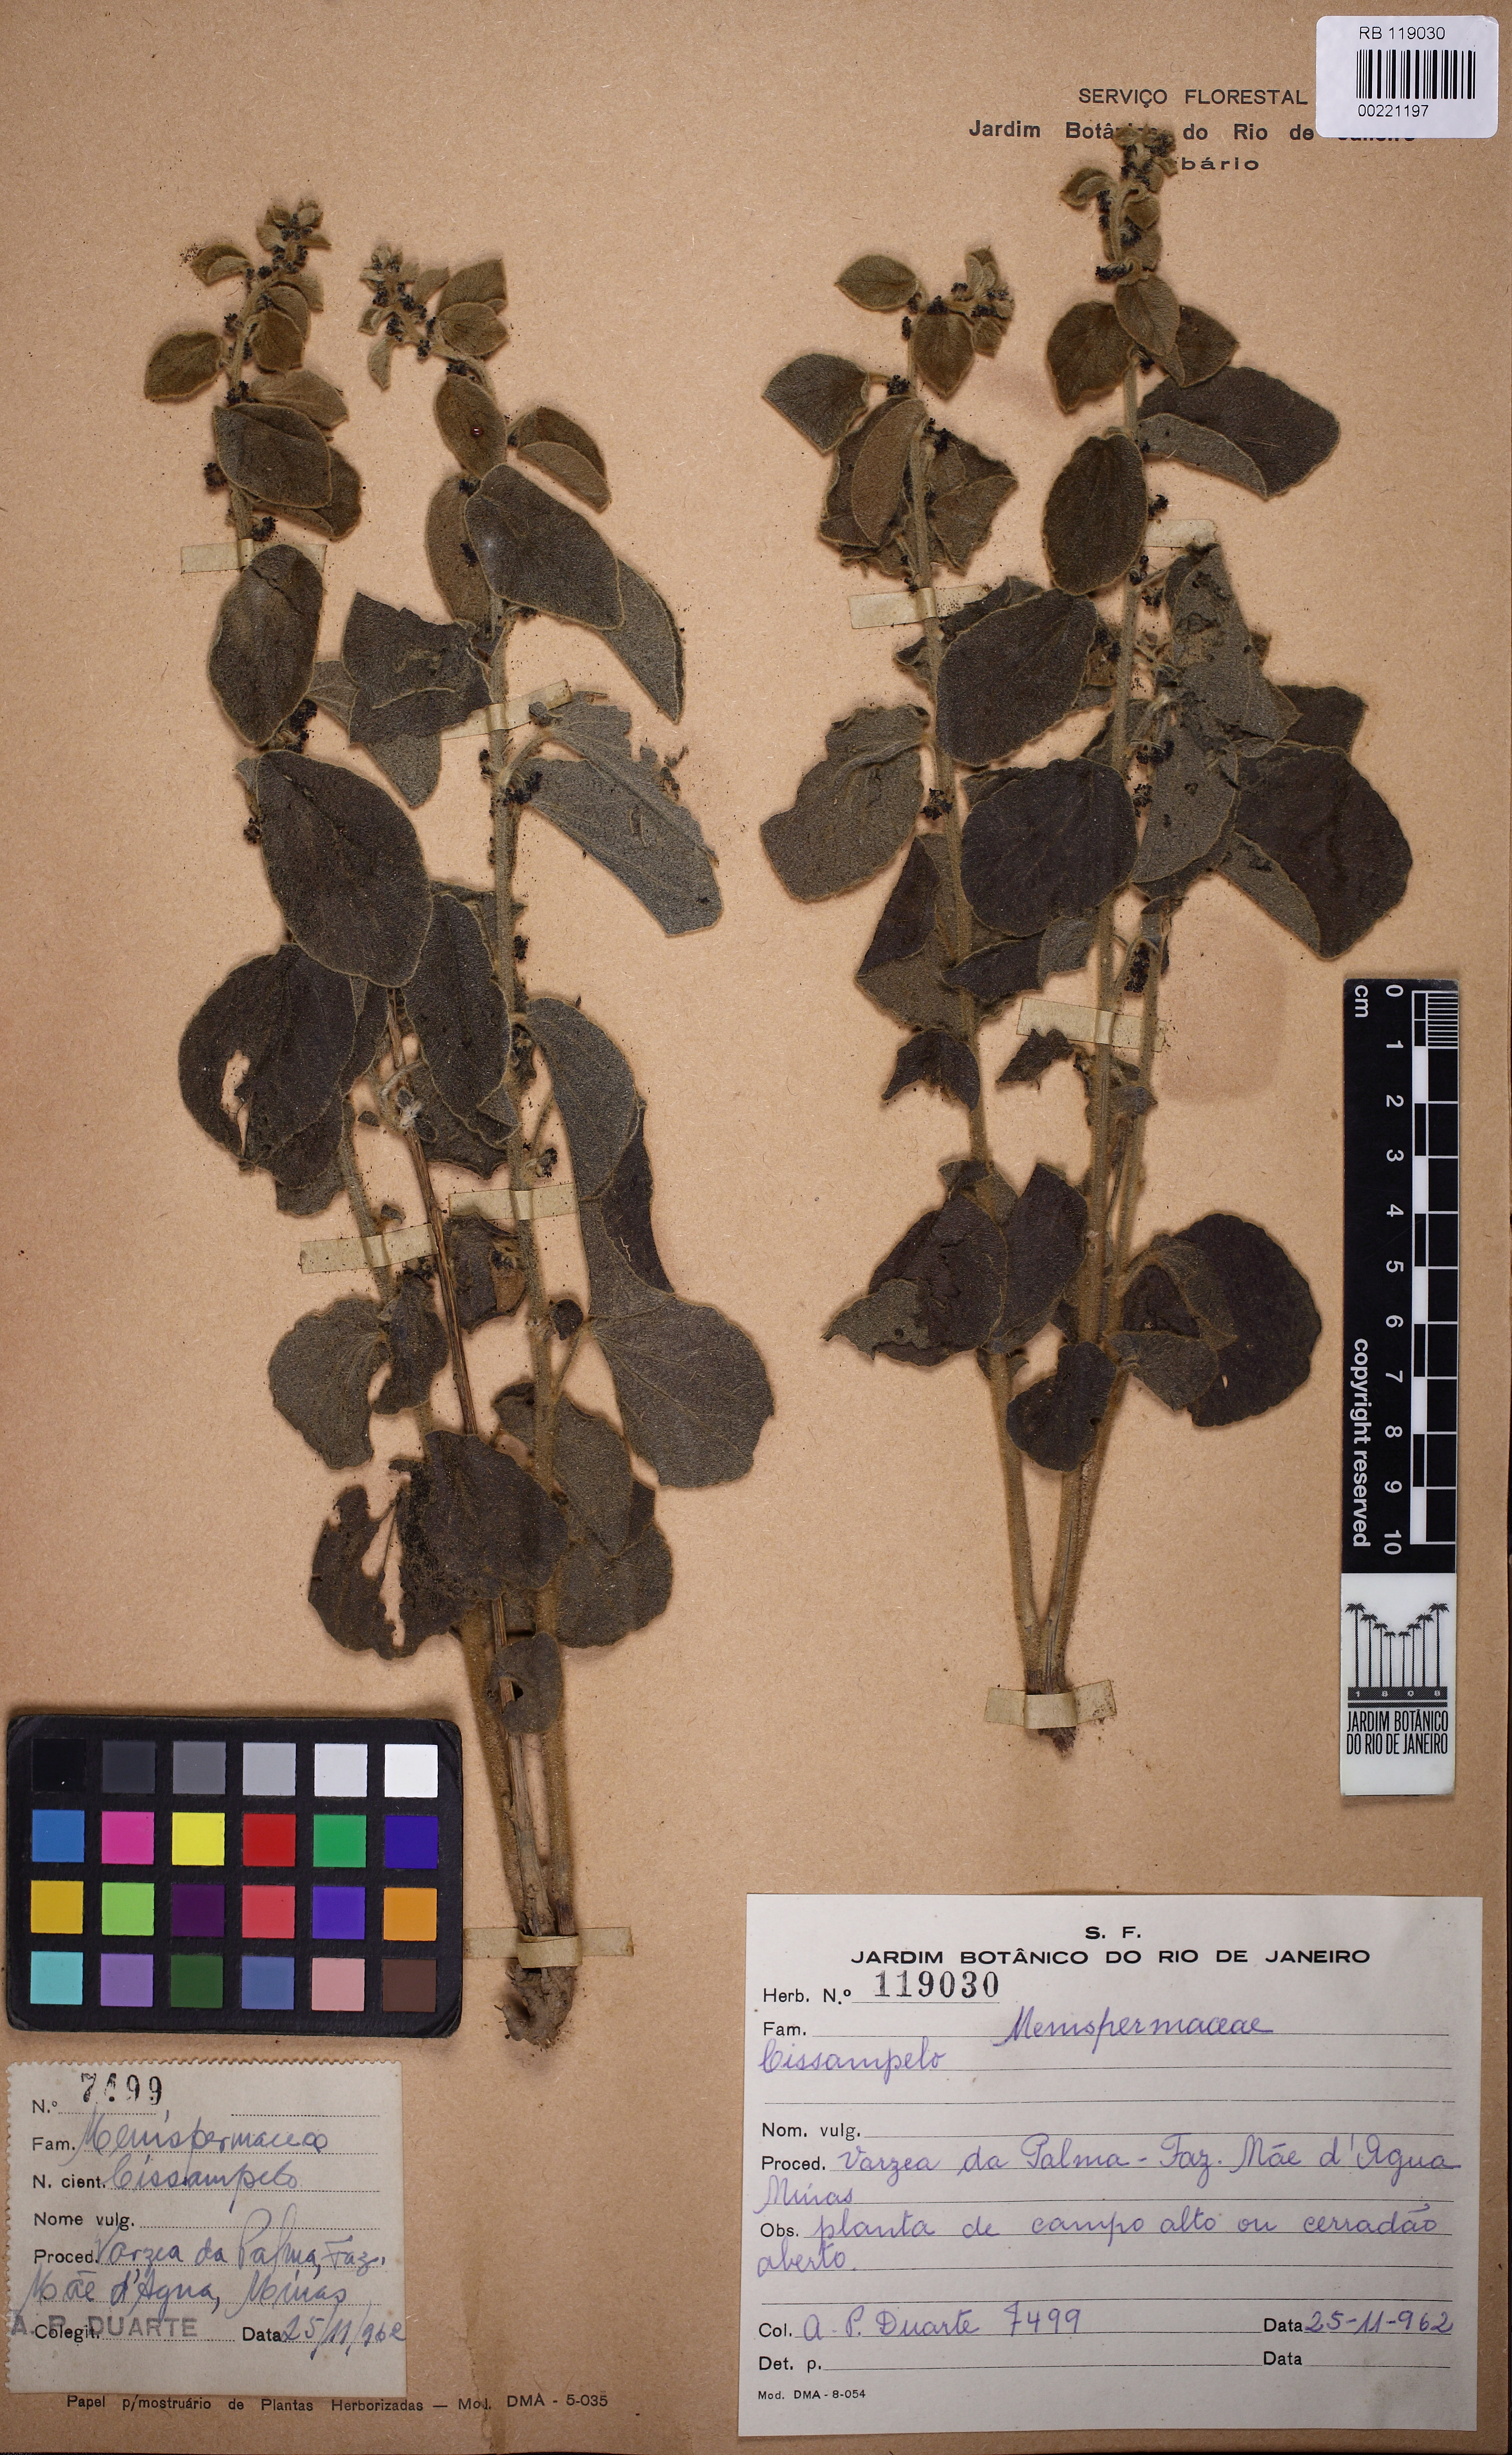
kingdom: Plantae
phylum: Tracheophyta
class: Magnoliopsida
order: Ranunculales
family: Menispermaceae
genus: Cissampelos
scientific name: Cissampelos
